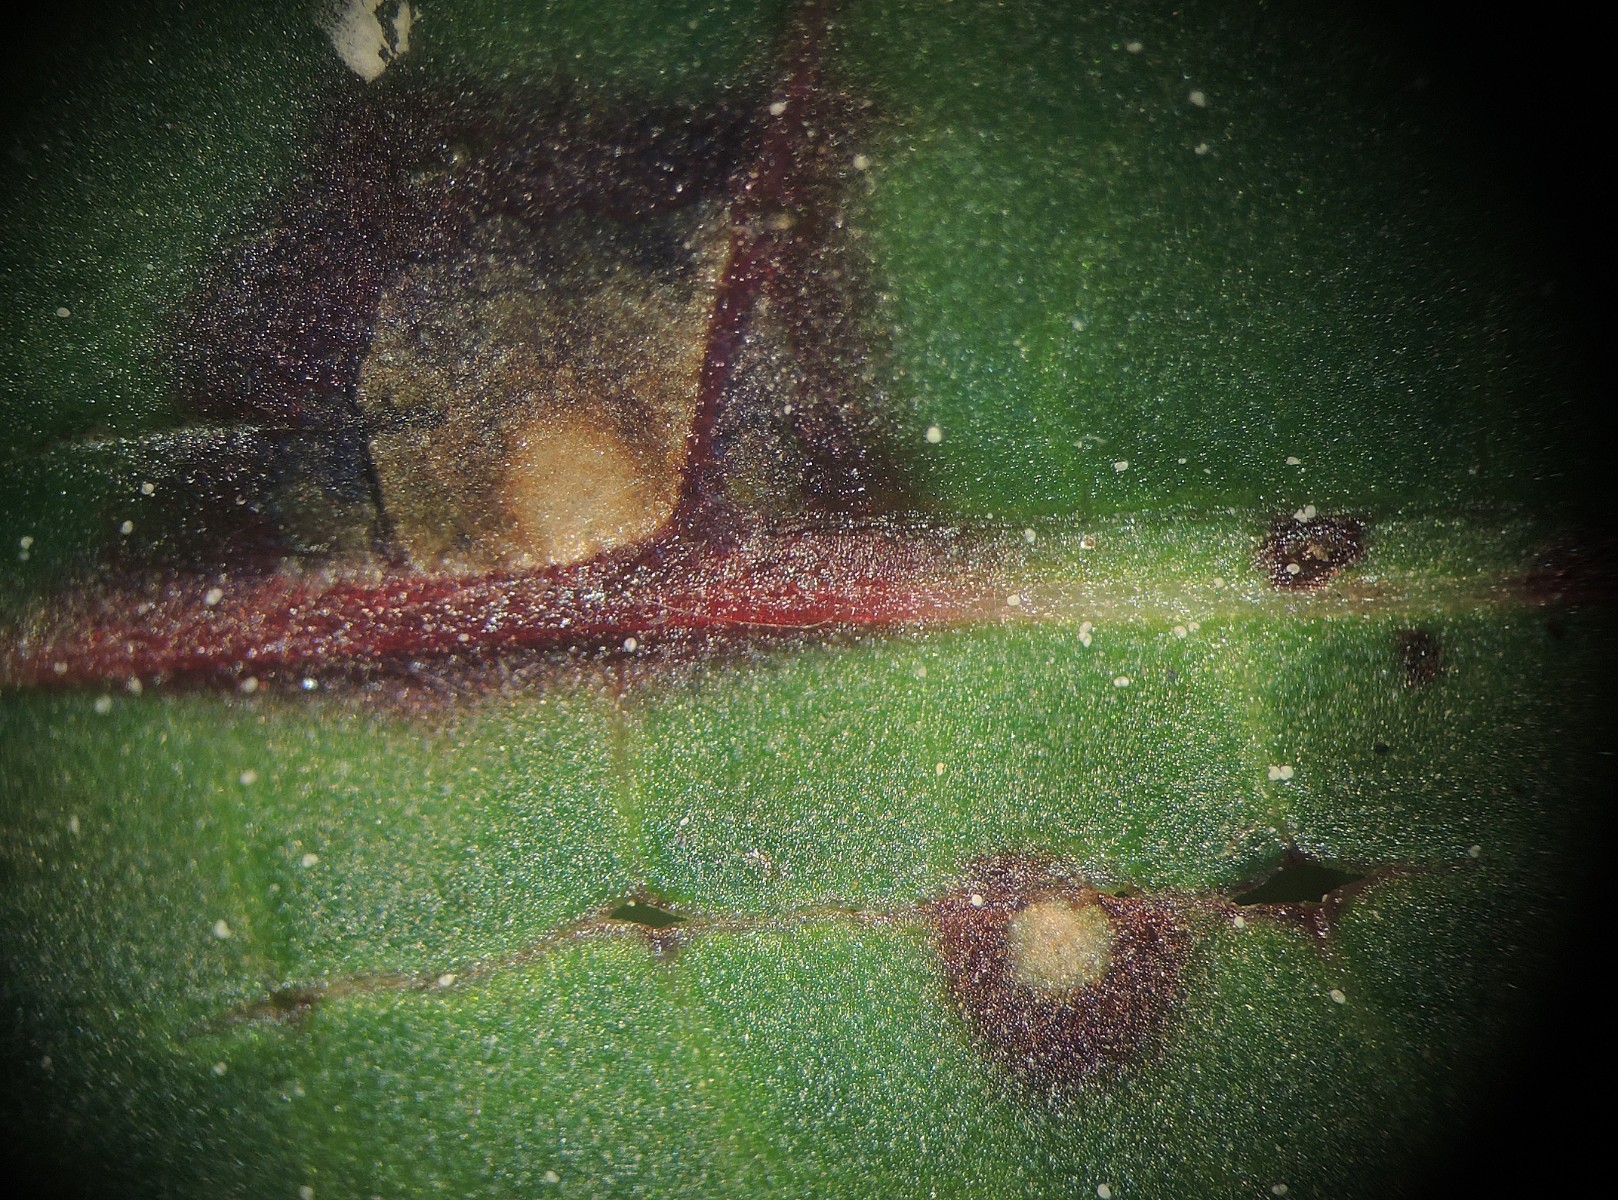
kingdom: Fungi
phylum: Ascomycota
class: Dothideomycetes
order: Mycosphaerellales
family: Mycosphaerellaceae
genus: Ramularia
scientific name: Ramularia rubella
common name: Red dock spot
